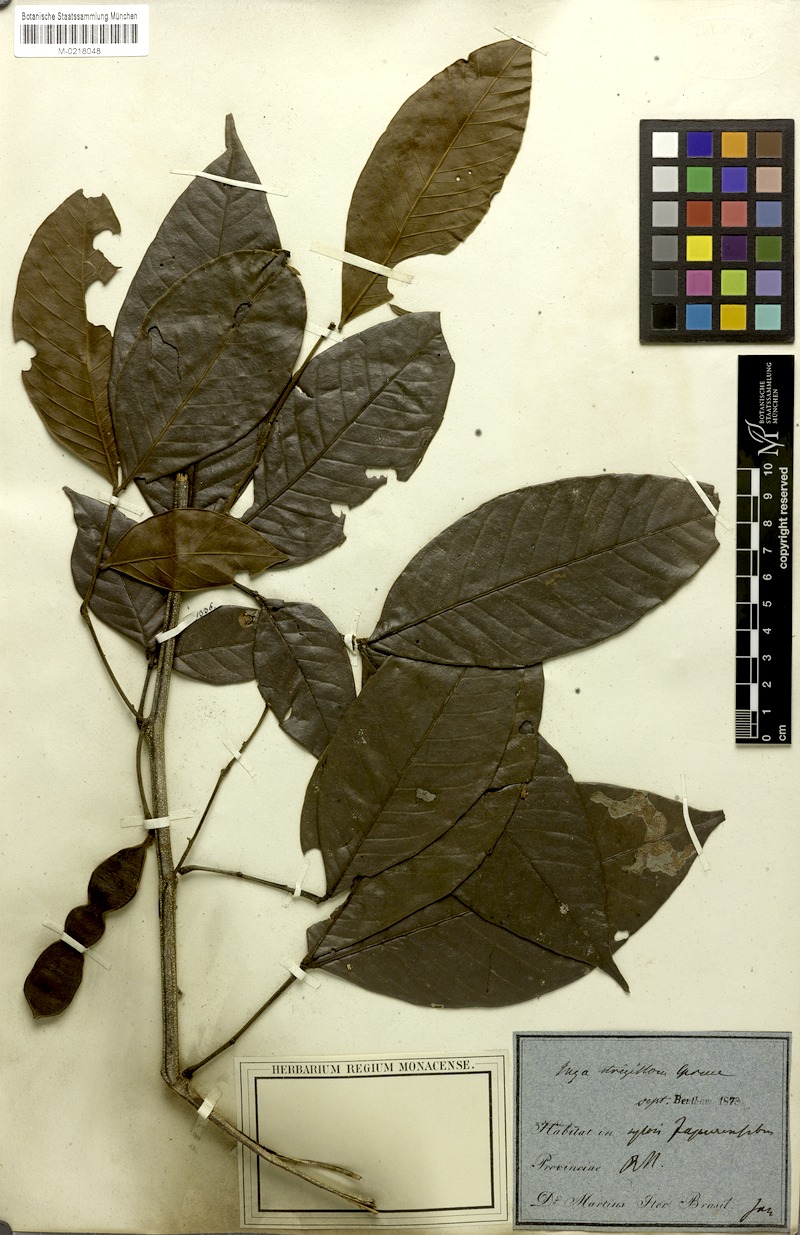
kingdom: Plantae
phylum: Tracheophyta
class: Magnoliopsida
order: Fabales
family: Fabaceae
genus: Inga
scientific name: Inga punctata
